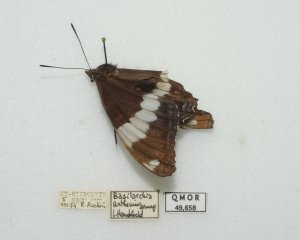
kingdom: Animalia
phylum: Arthropoda
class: Insecta
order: Lepidoptera
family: Nymphalidae
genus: Limenitis
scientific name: Limenitis arthemis
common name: Red-spotted Admiral
